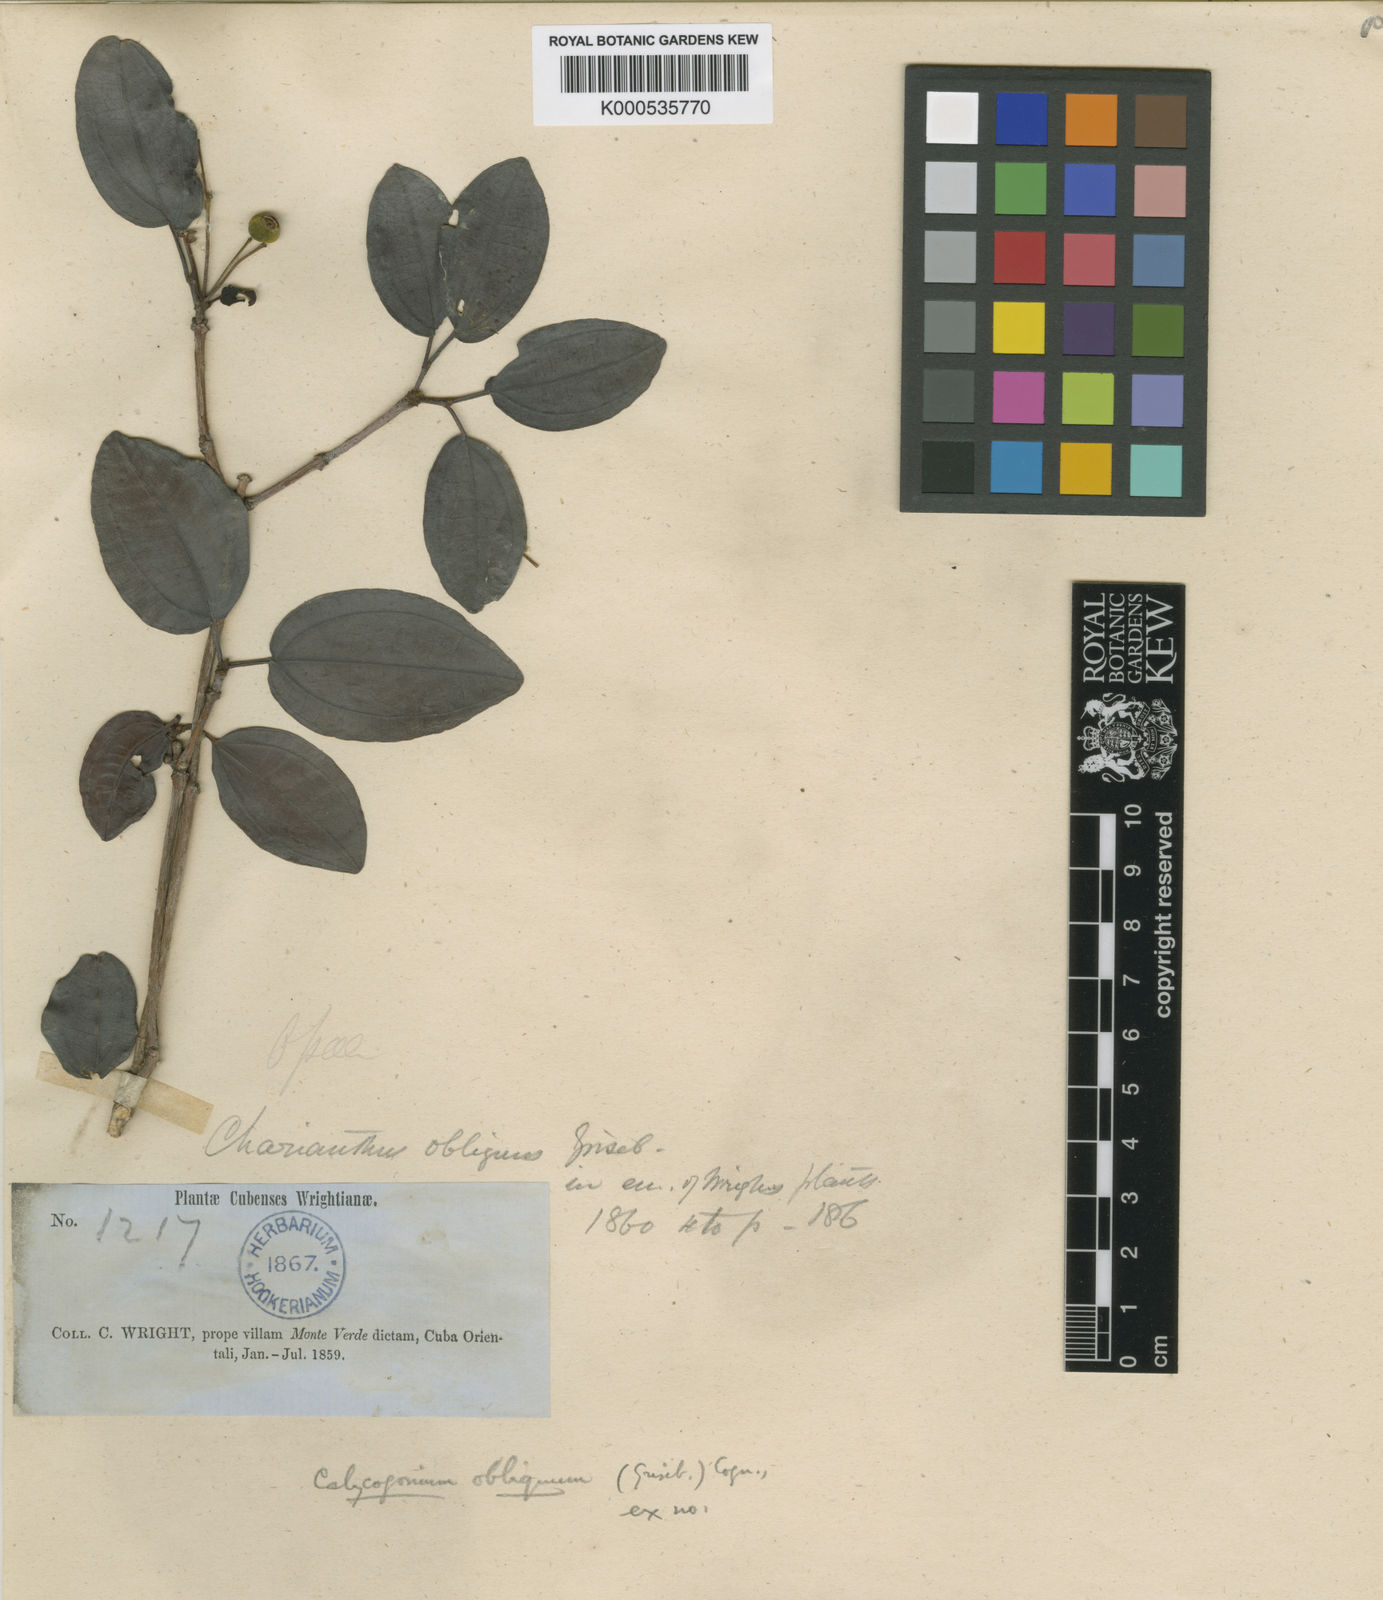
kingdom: Plantae
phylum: Tracheophyta
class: Magnoliopsida
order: Myrtales
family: Melastomataceae
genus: Miconia
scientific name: Miconia victorinii
